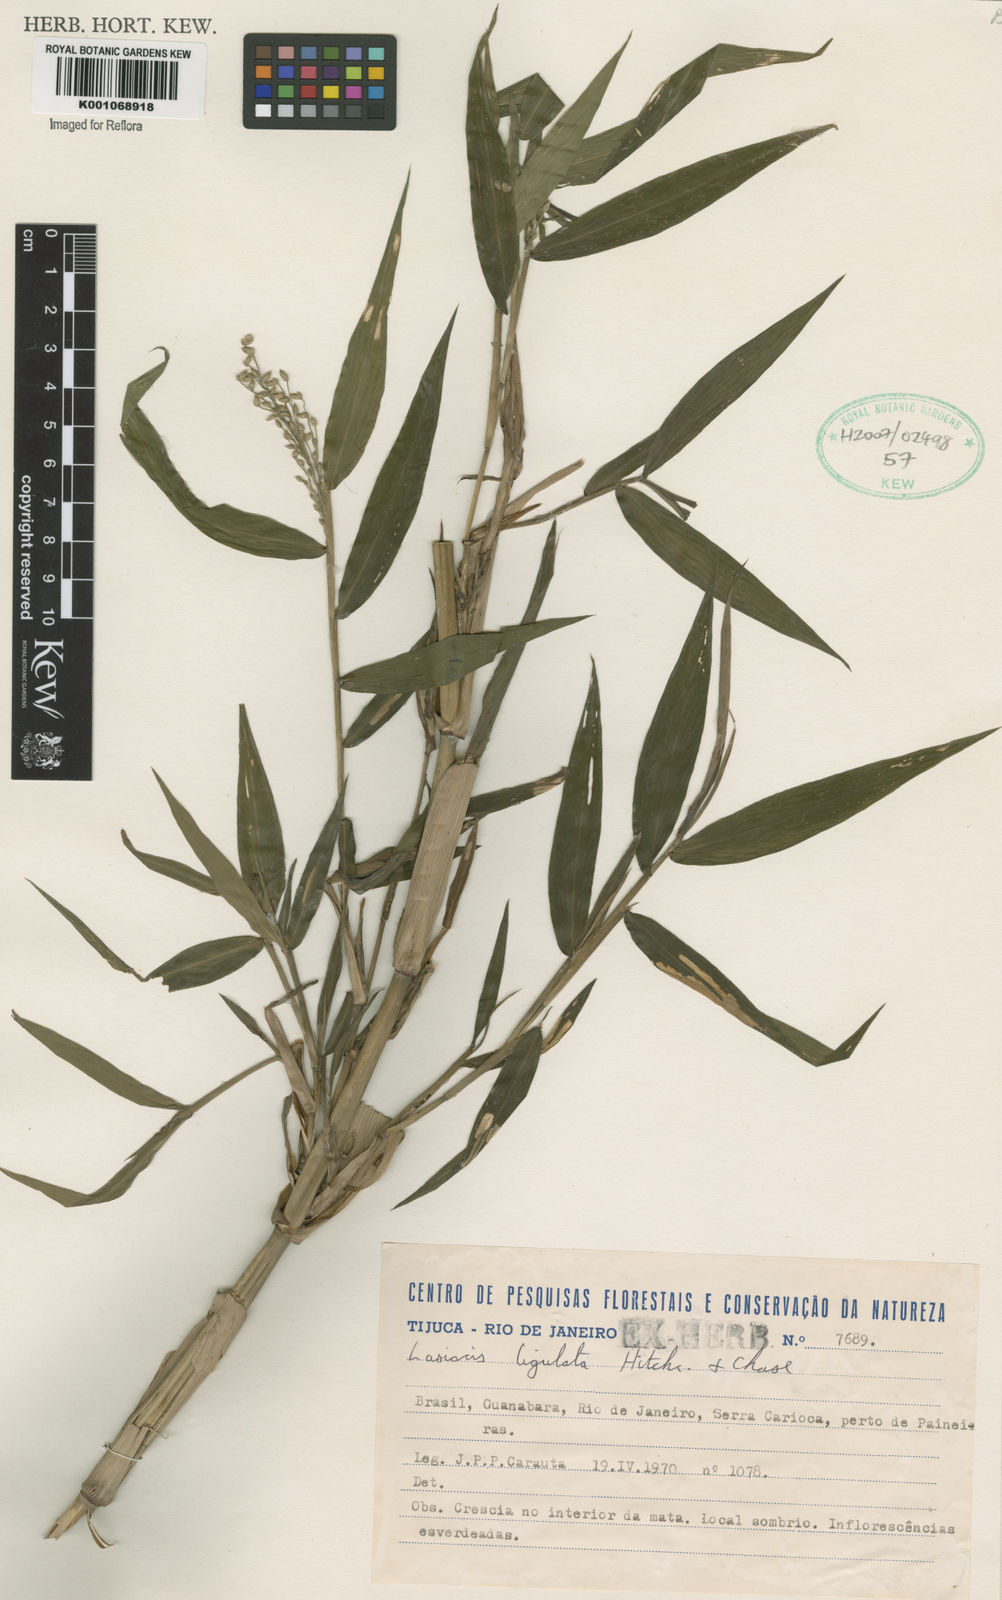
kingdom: Plantae
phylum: Tracheophyta
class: Liliopsida
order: Poales
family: Poaceae
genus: Lasiacis
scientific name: Lasiacis ligulata
